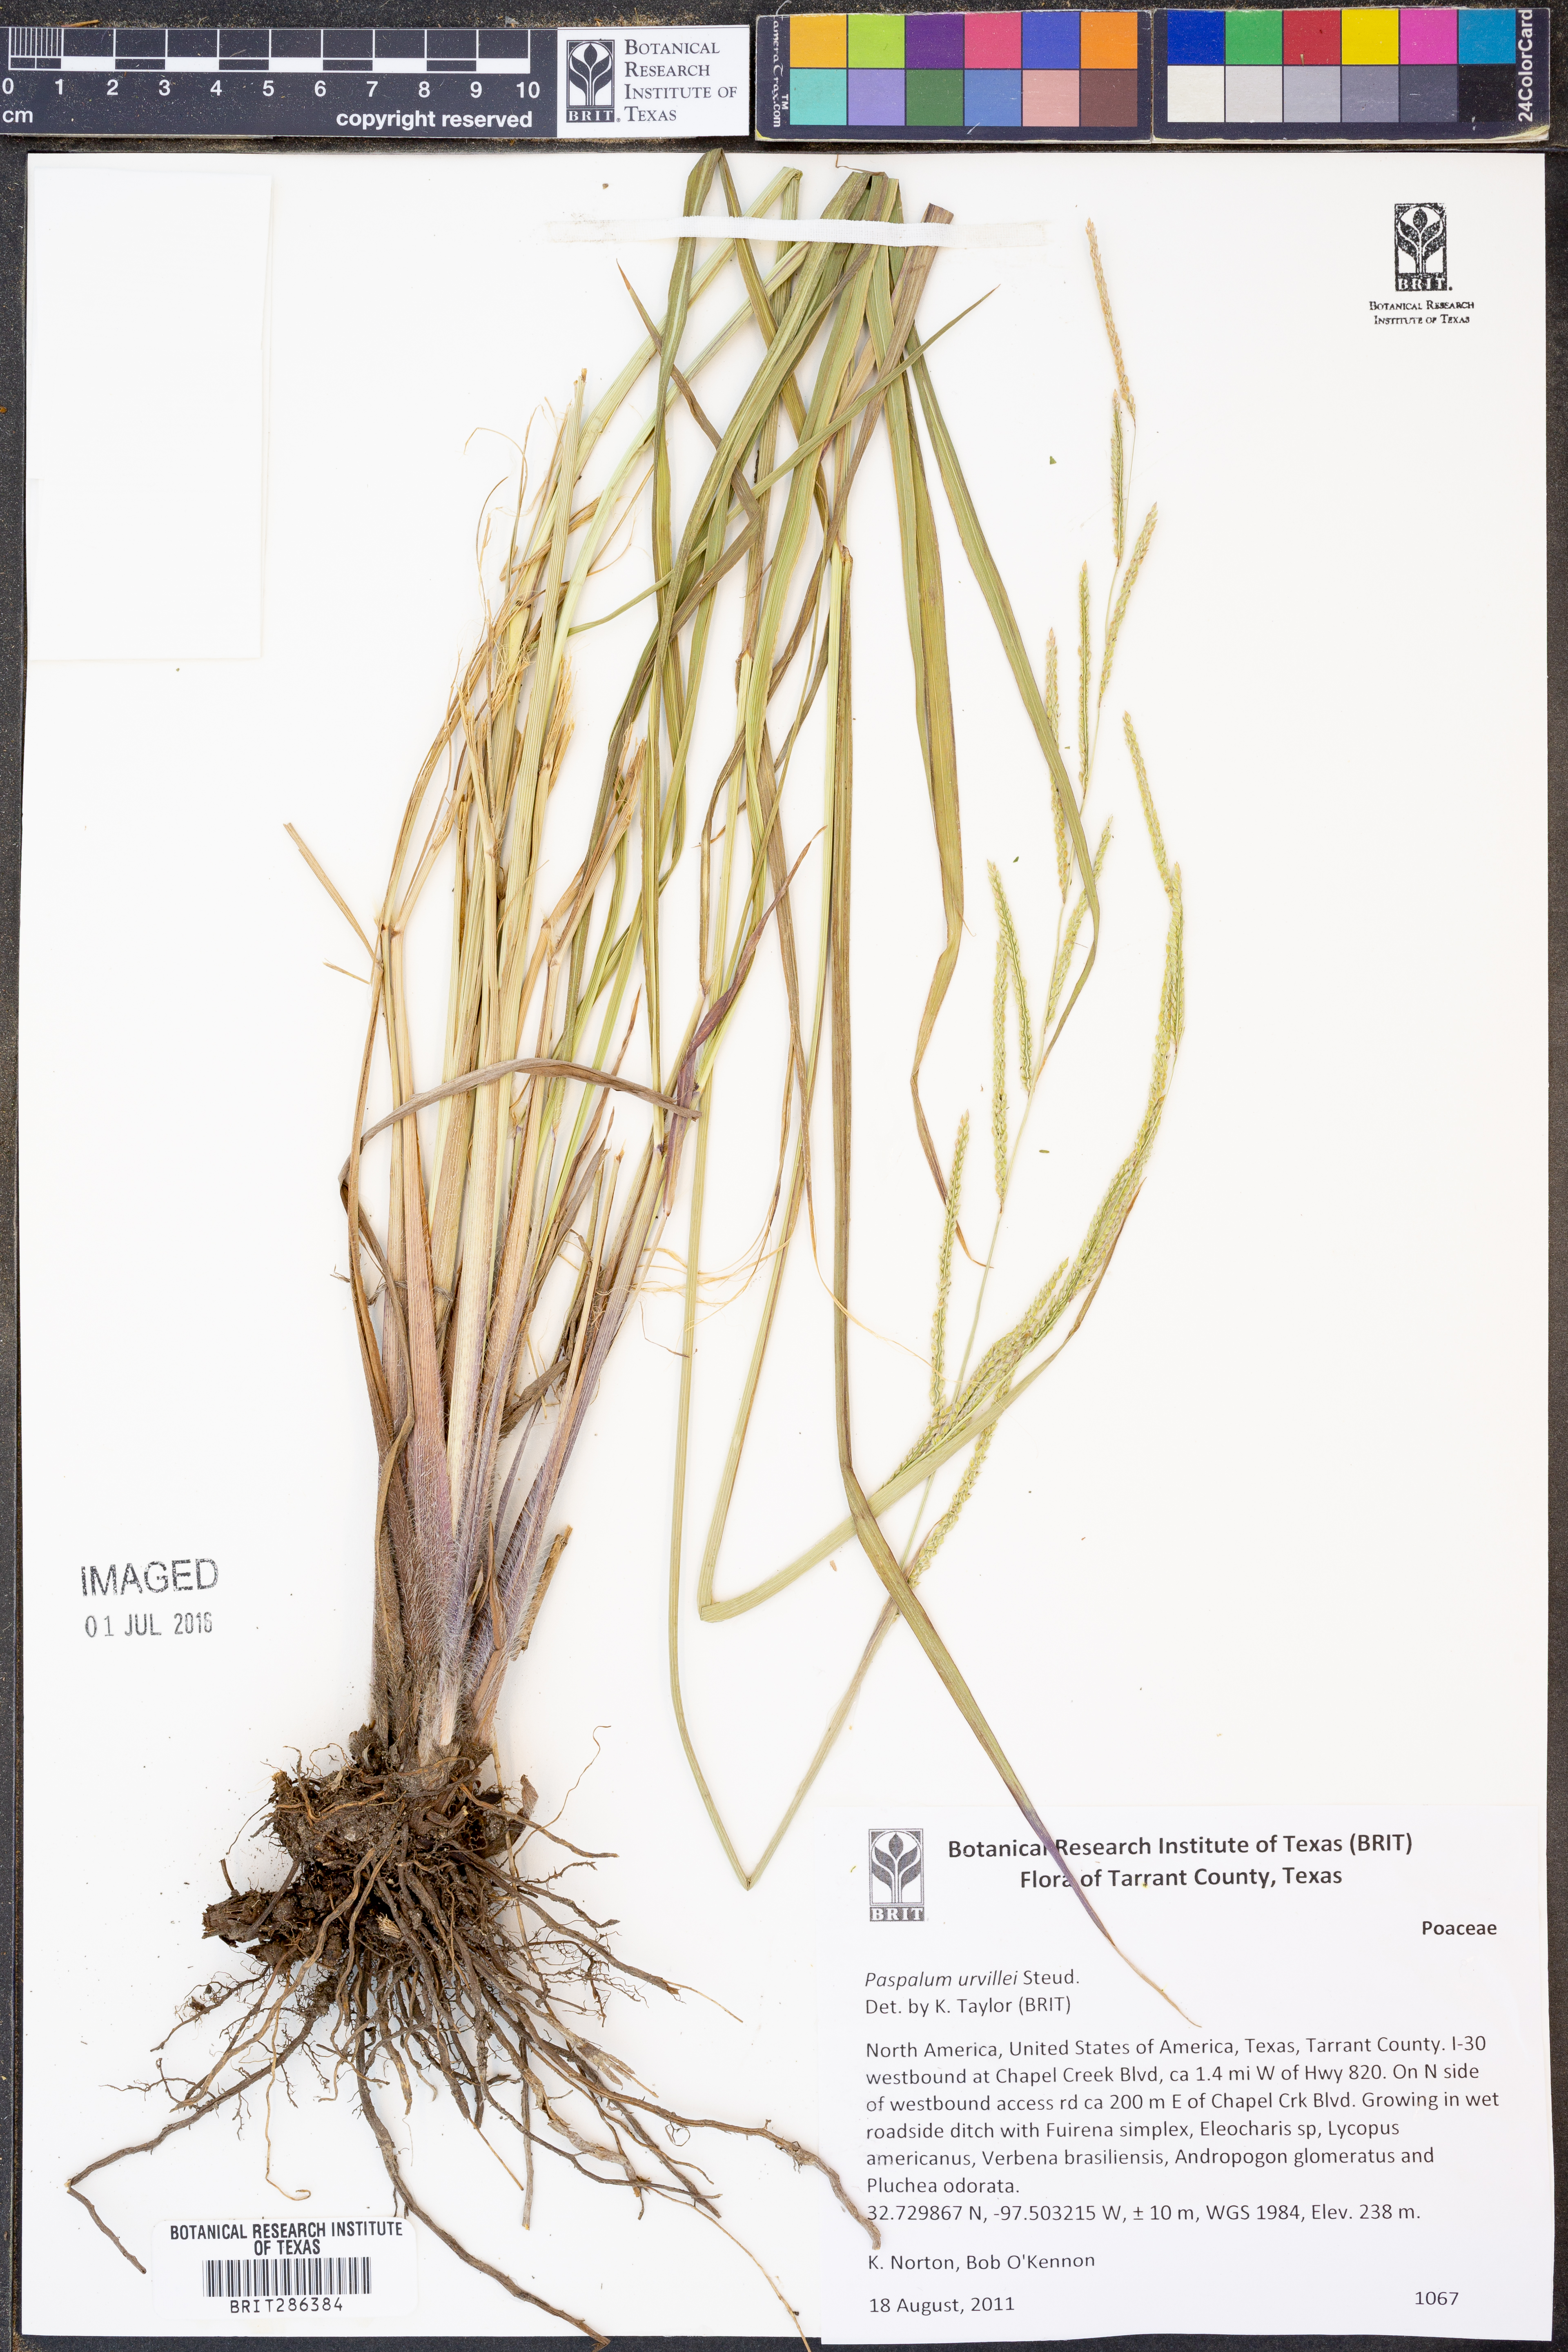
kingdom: Plantae
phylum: Tracheophyta
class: Liliopsida
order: Poales
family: Poaceae
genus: Paspalum
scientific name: Paspalum urvillei
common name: Vasey's grass
